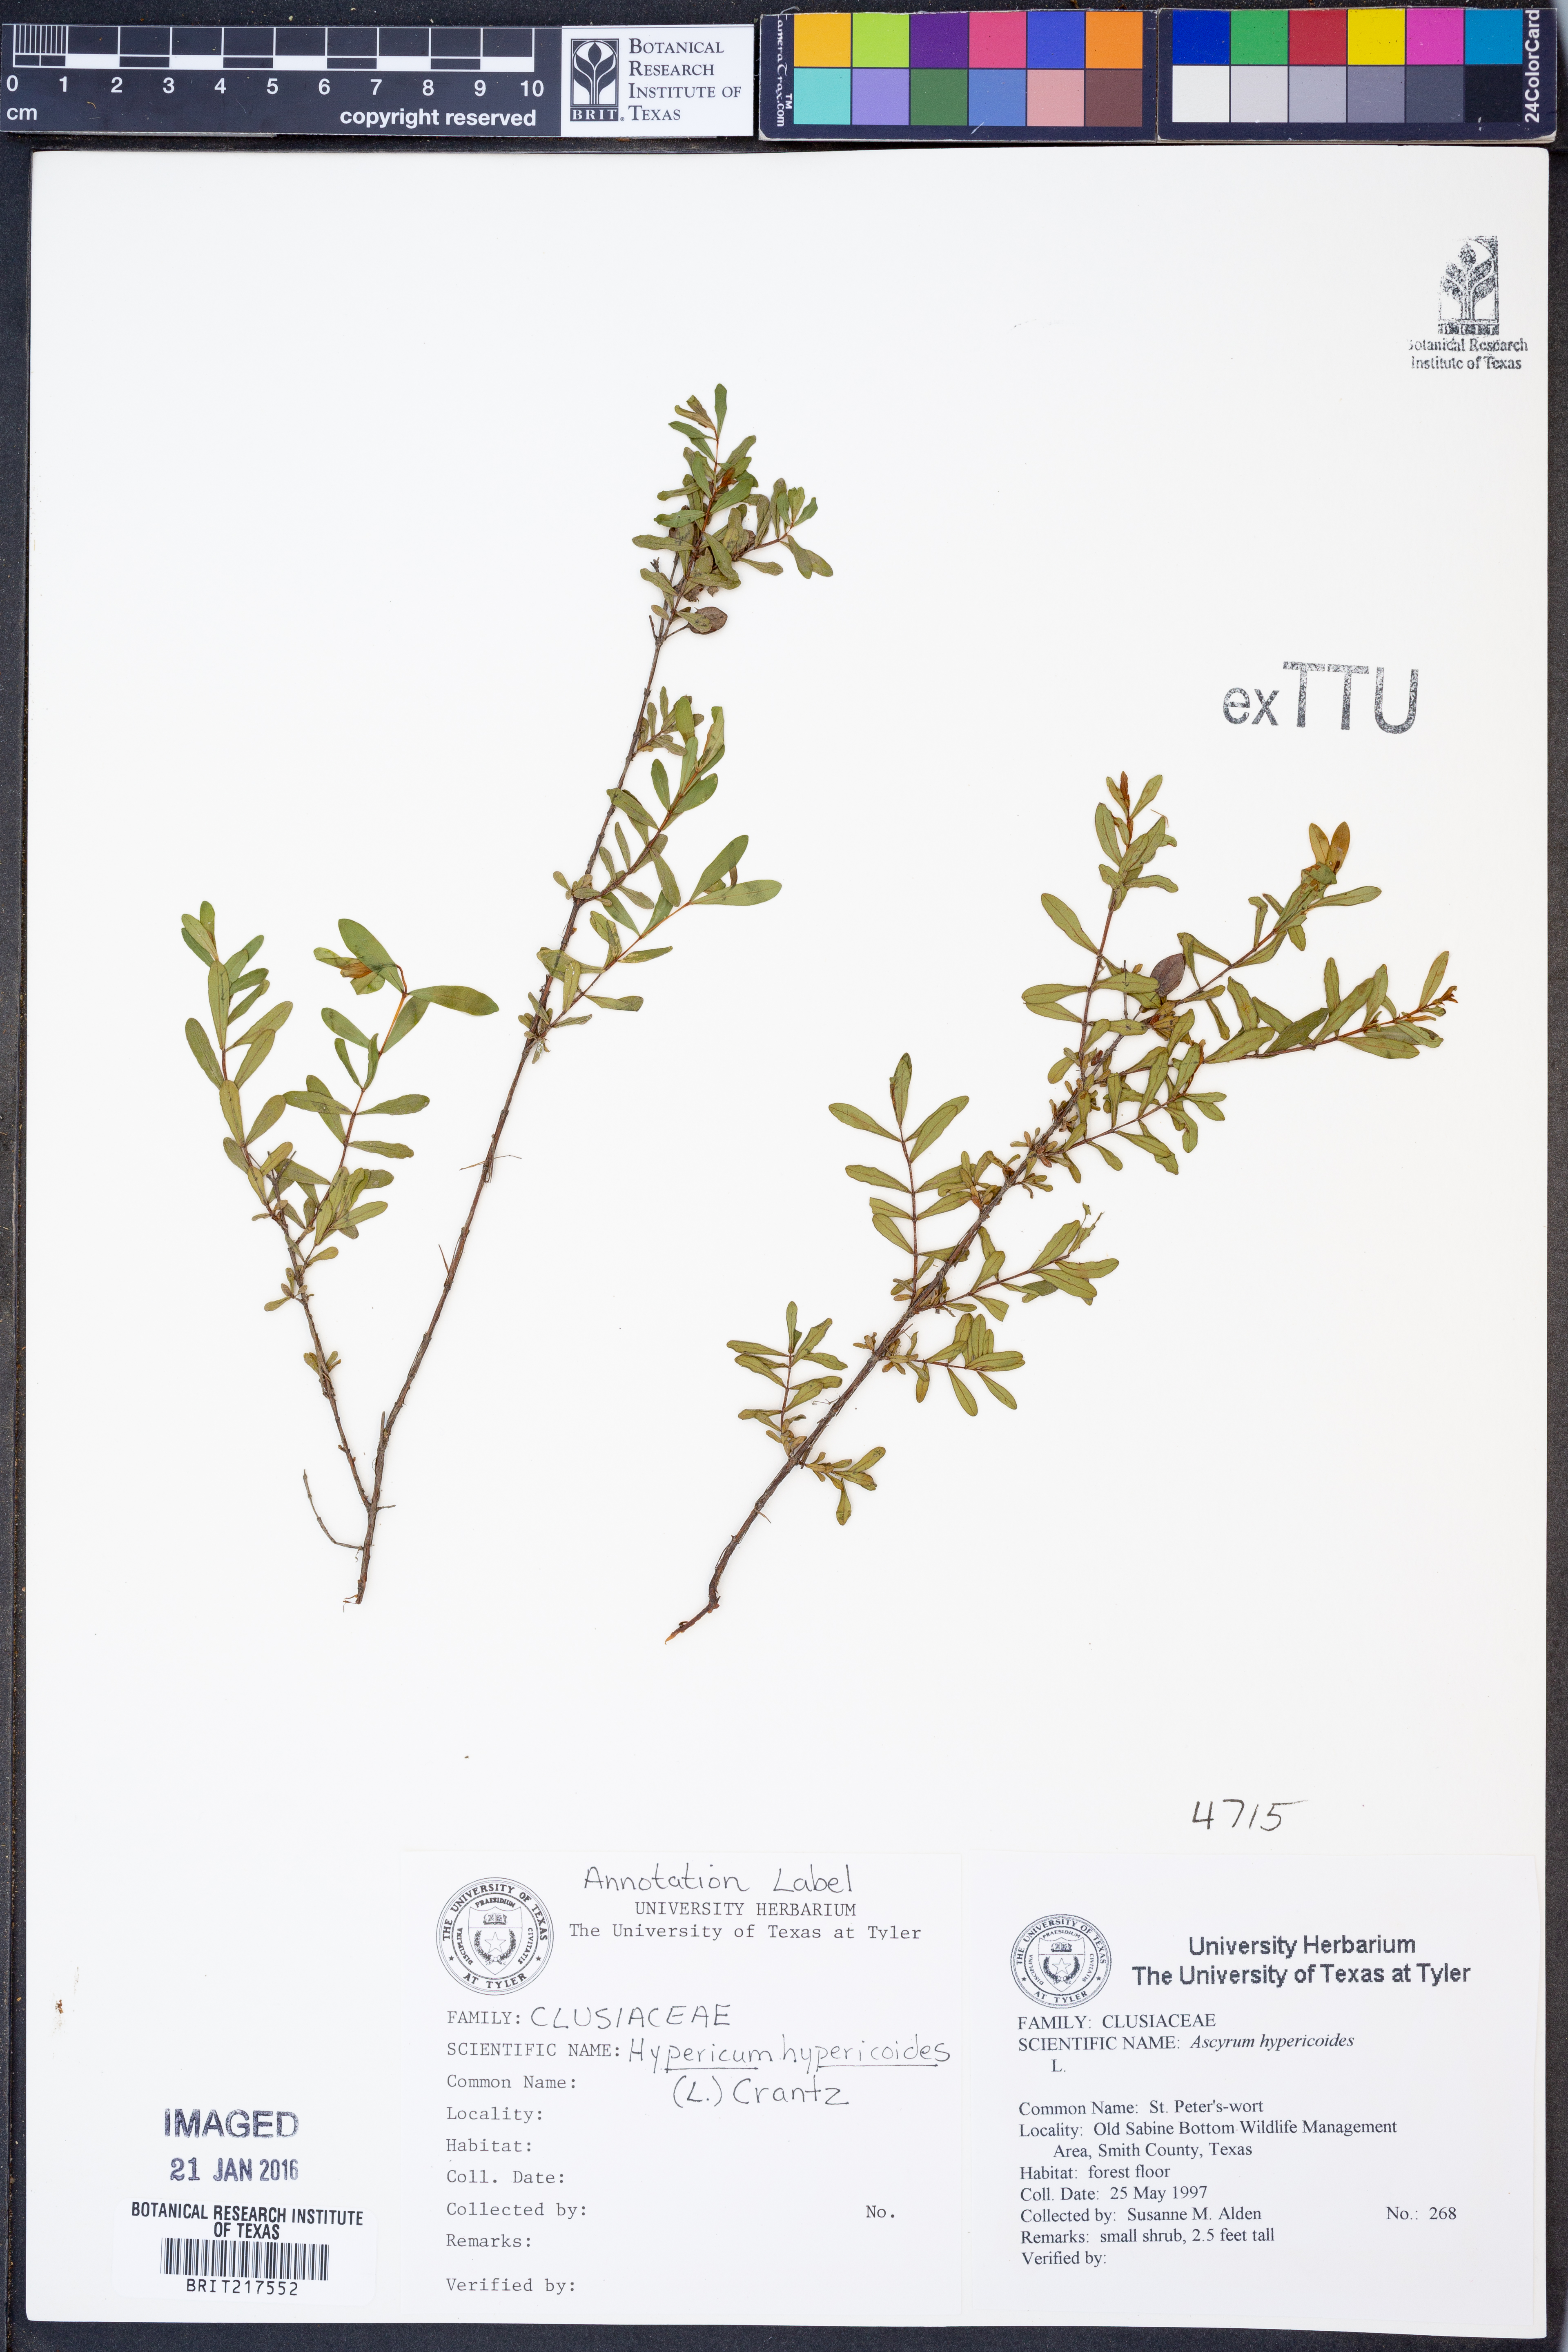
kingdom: Plantae
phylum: Tracheophyta
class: Magnoliopsida
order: Malpighiales
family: Hypericaceae
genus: Hypericum
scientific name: Hypericum hypericoides
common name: St. andrew's cross
